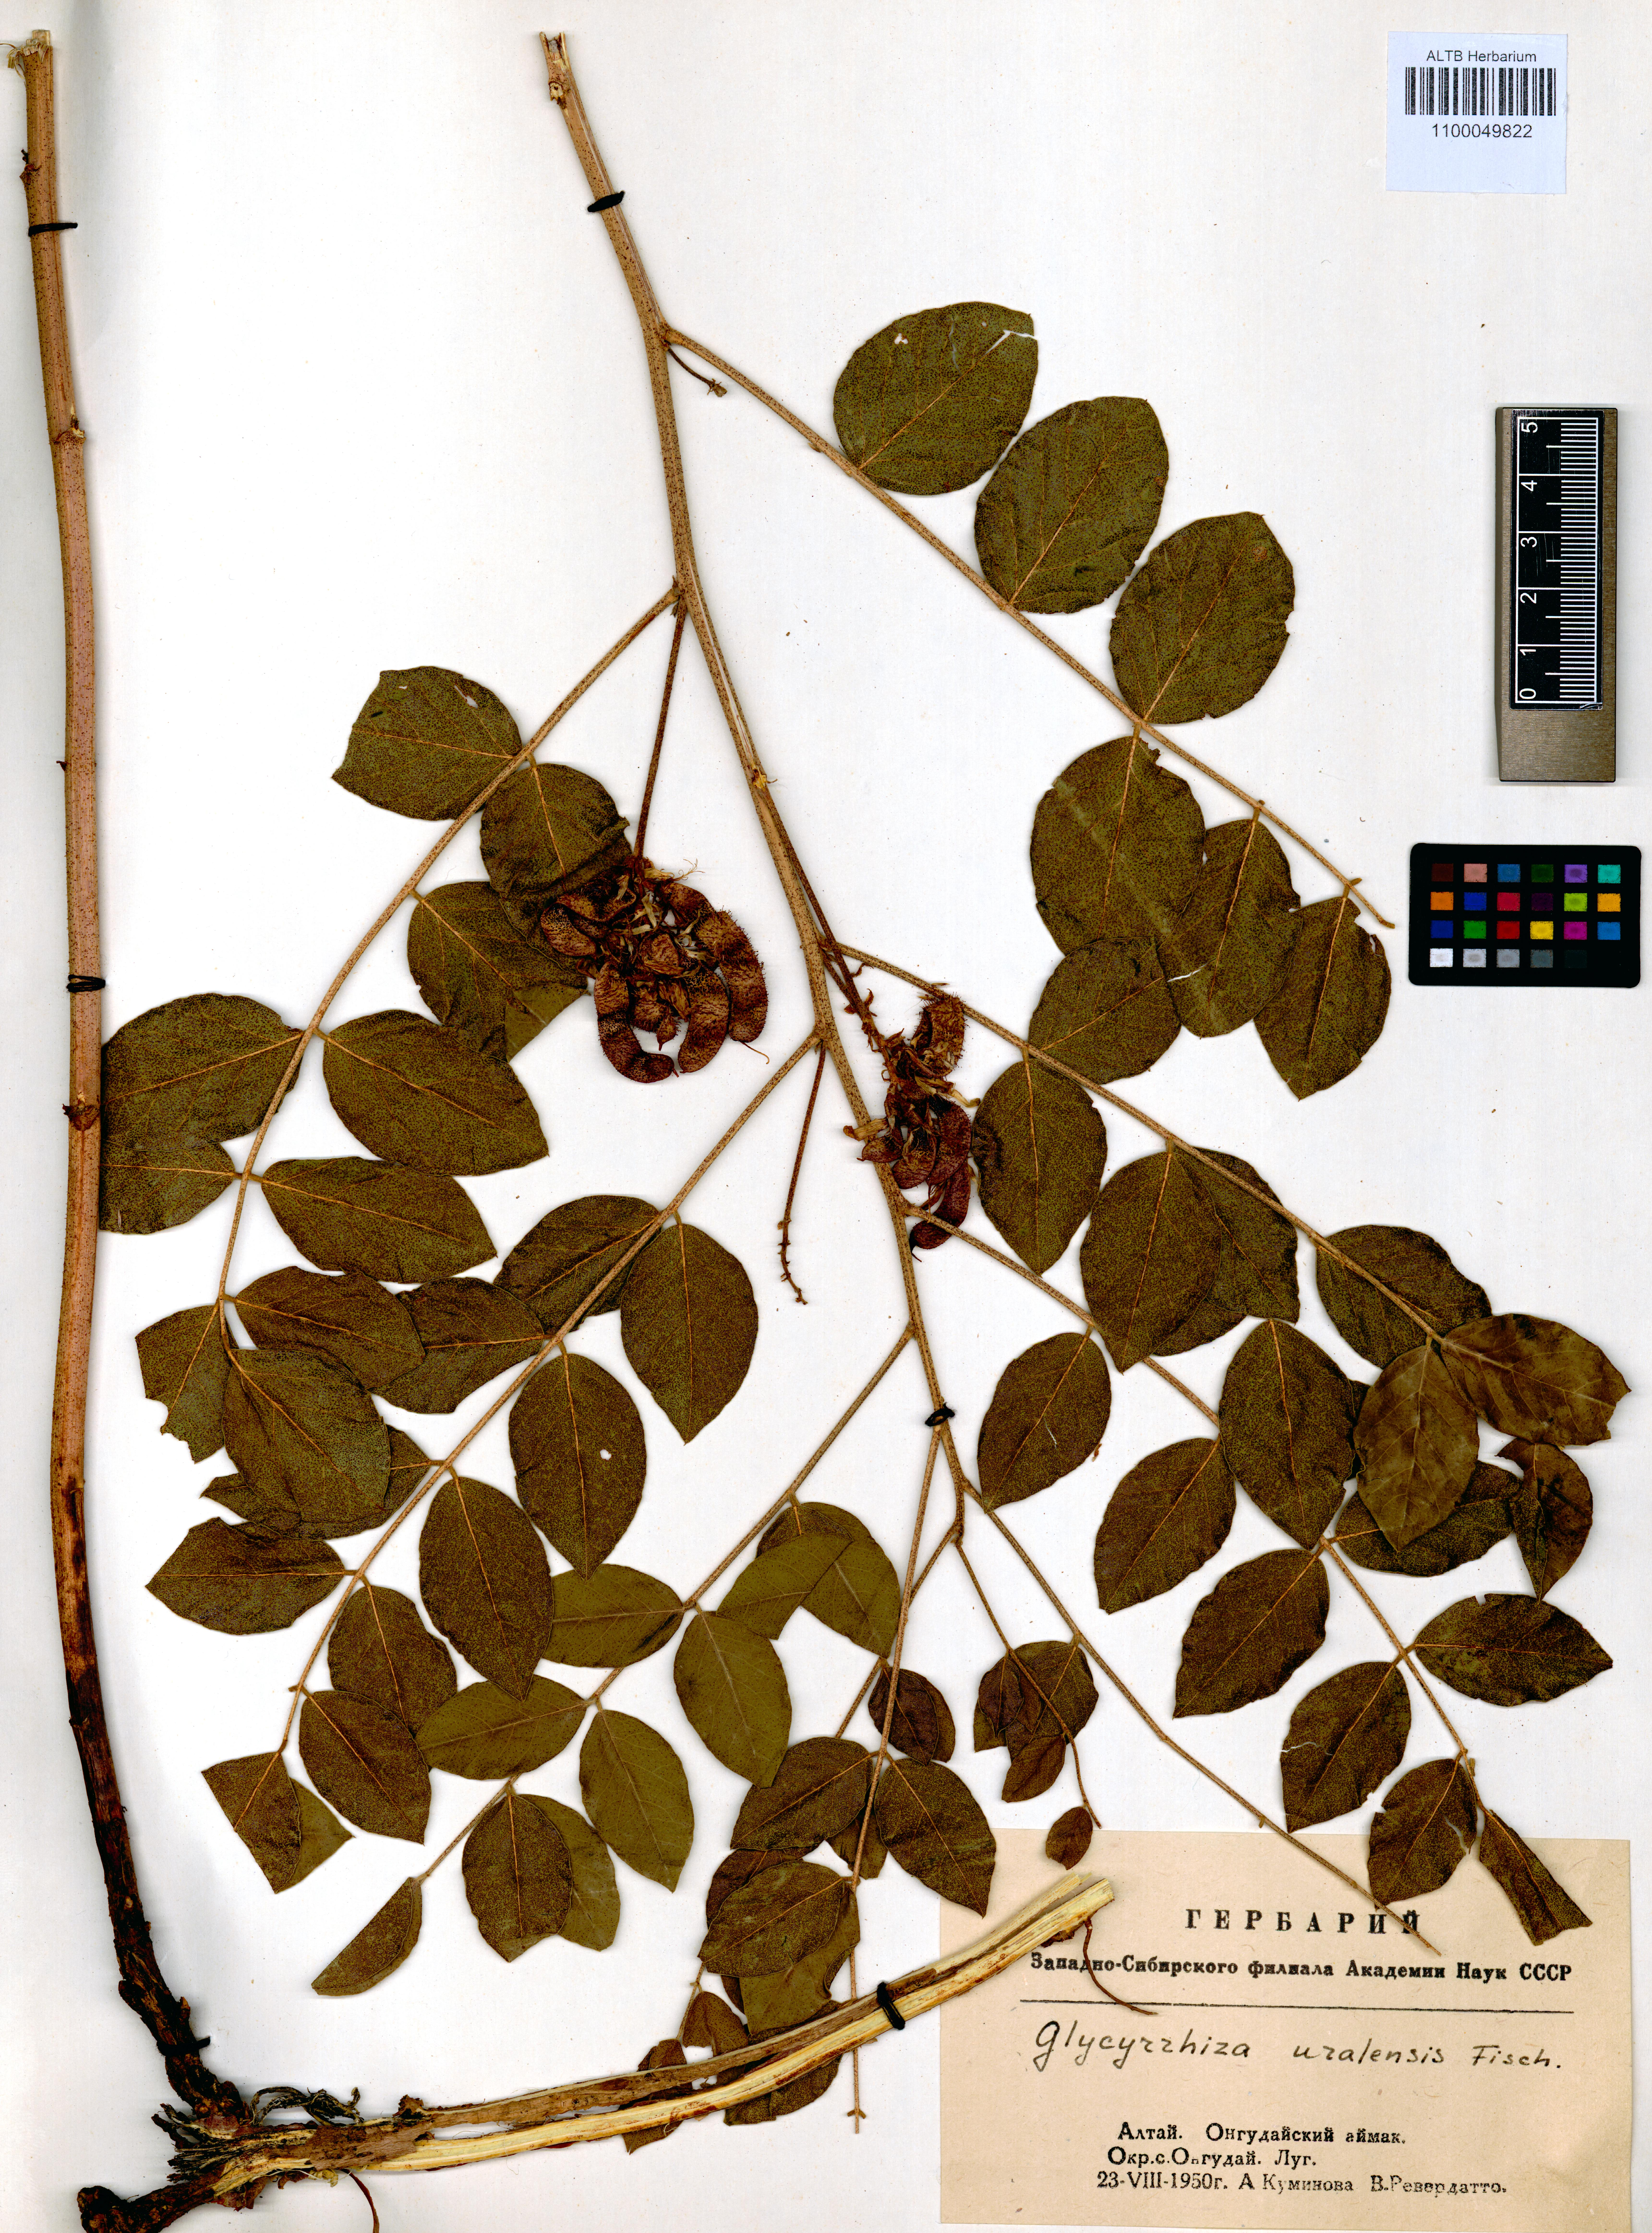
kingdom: Plantae
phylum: Tracheophyta
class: Magnoliopsida
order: Fabales
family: Fabaceae
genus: Glycyrrhiza
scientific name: Glycyrrhiza uralensis
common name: Chinese licorice
